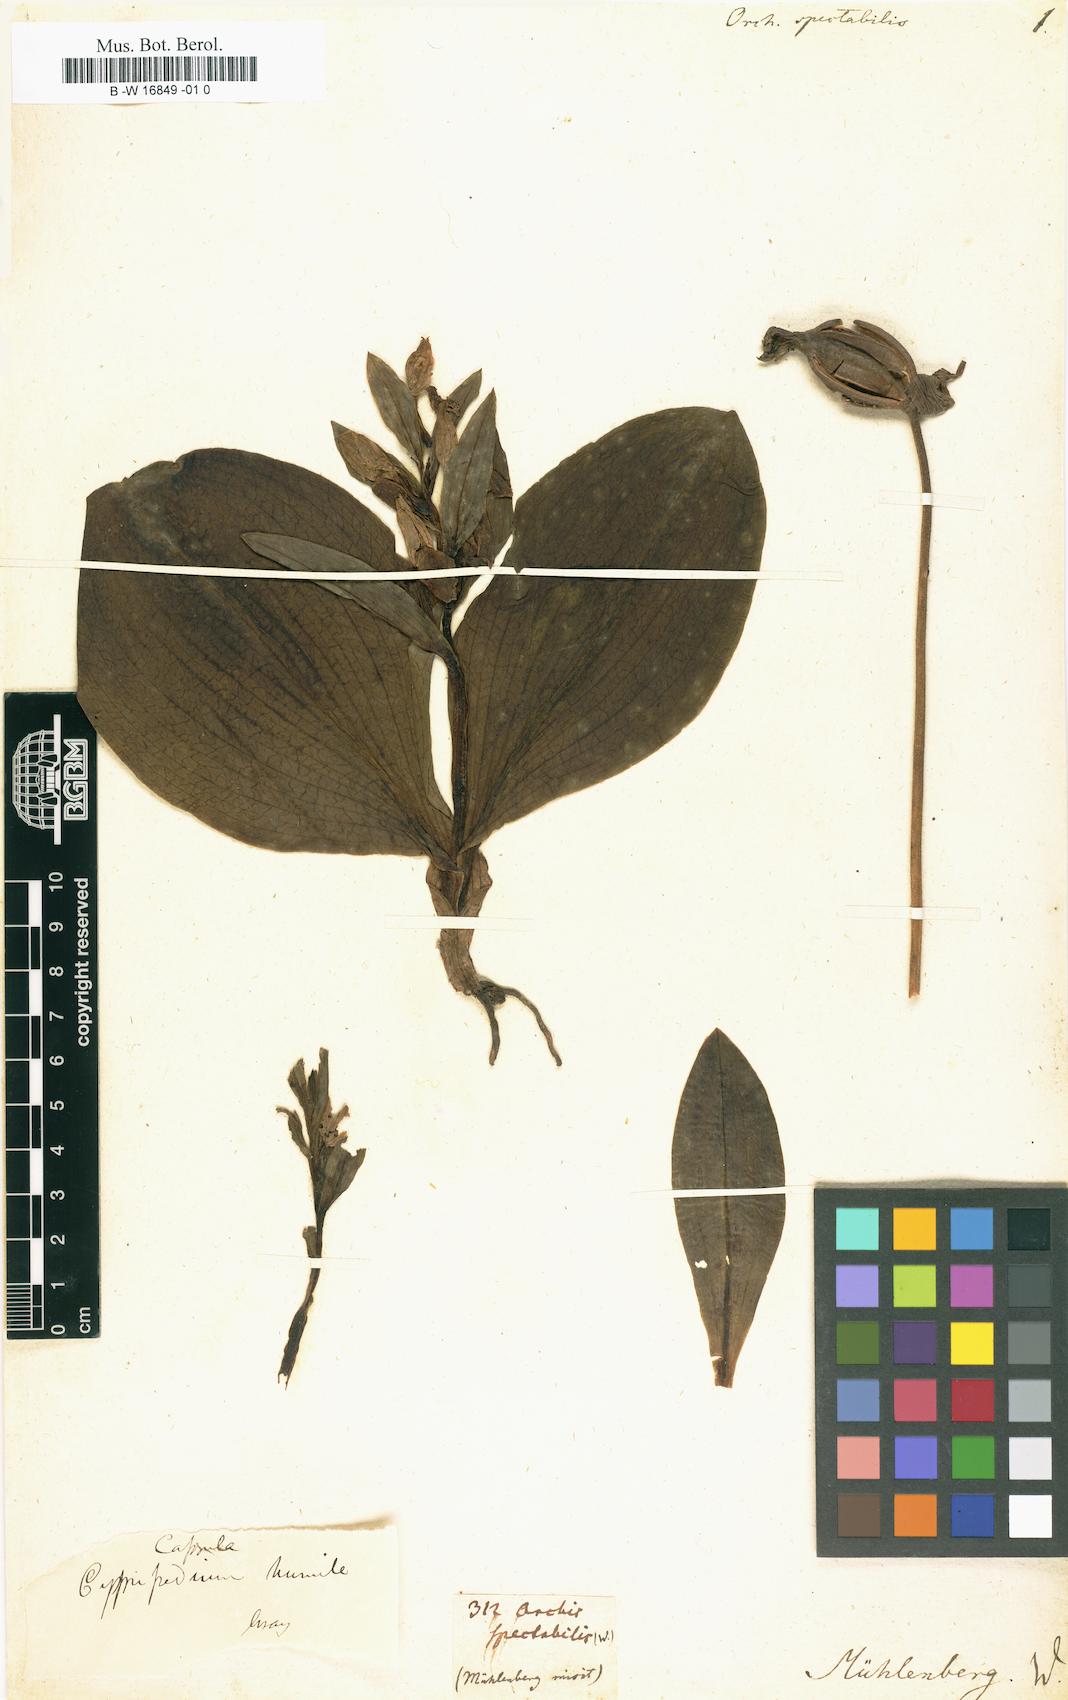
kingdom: Plantae
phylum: Tracheophyta
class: Liliopsida
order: Asparagales
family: Orchidaceae
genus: Galearis
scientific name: Galearis spectabilis
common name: Purple-hooded orchis
